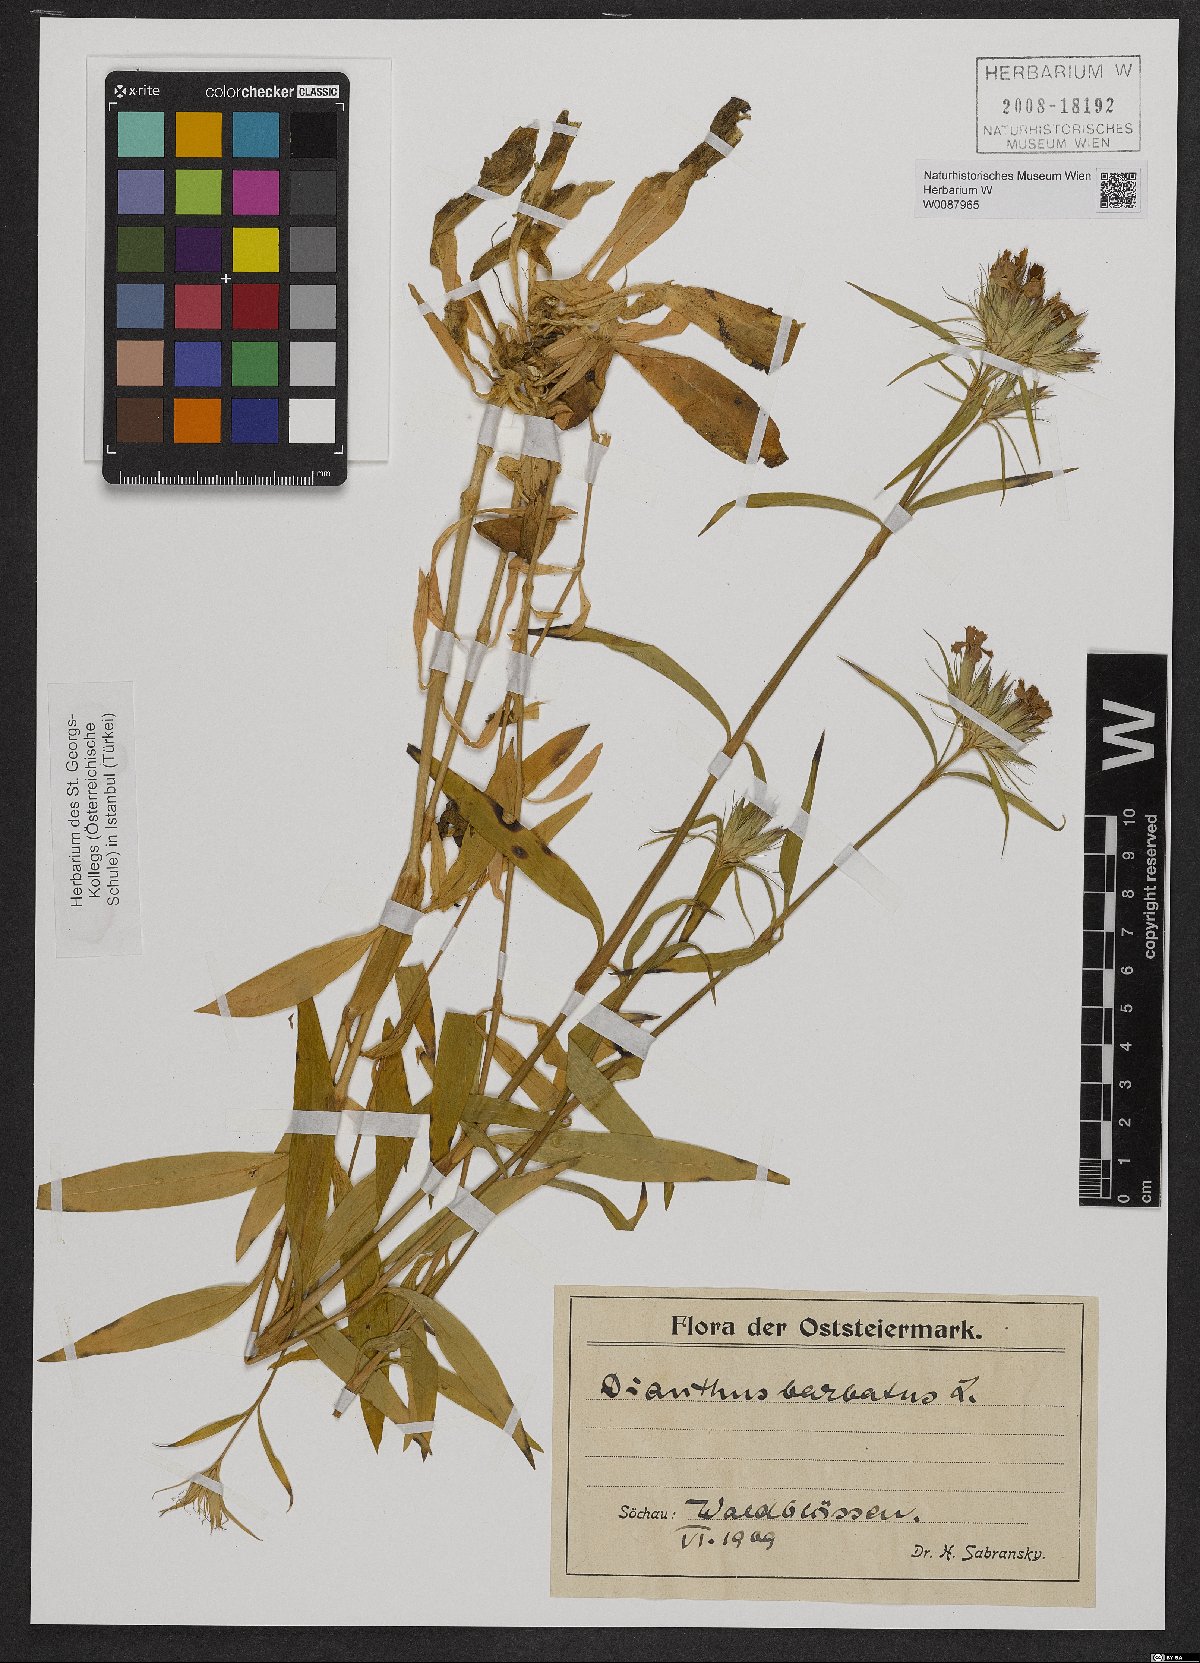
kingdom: Plantae
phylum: Tracheophyta
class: Magnoliopsida
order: Caryophyllales
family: Caryophyllaceae
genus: Dianthus
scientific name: Dianthus barbatus
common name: Sweet-william
